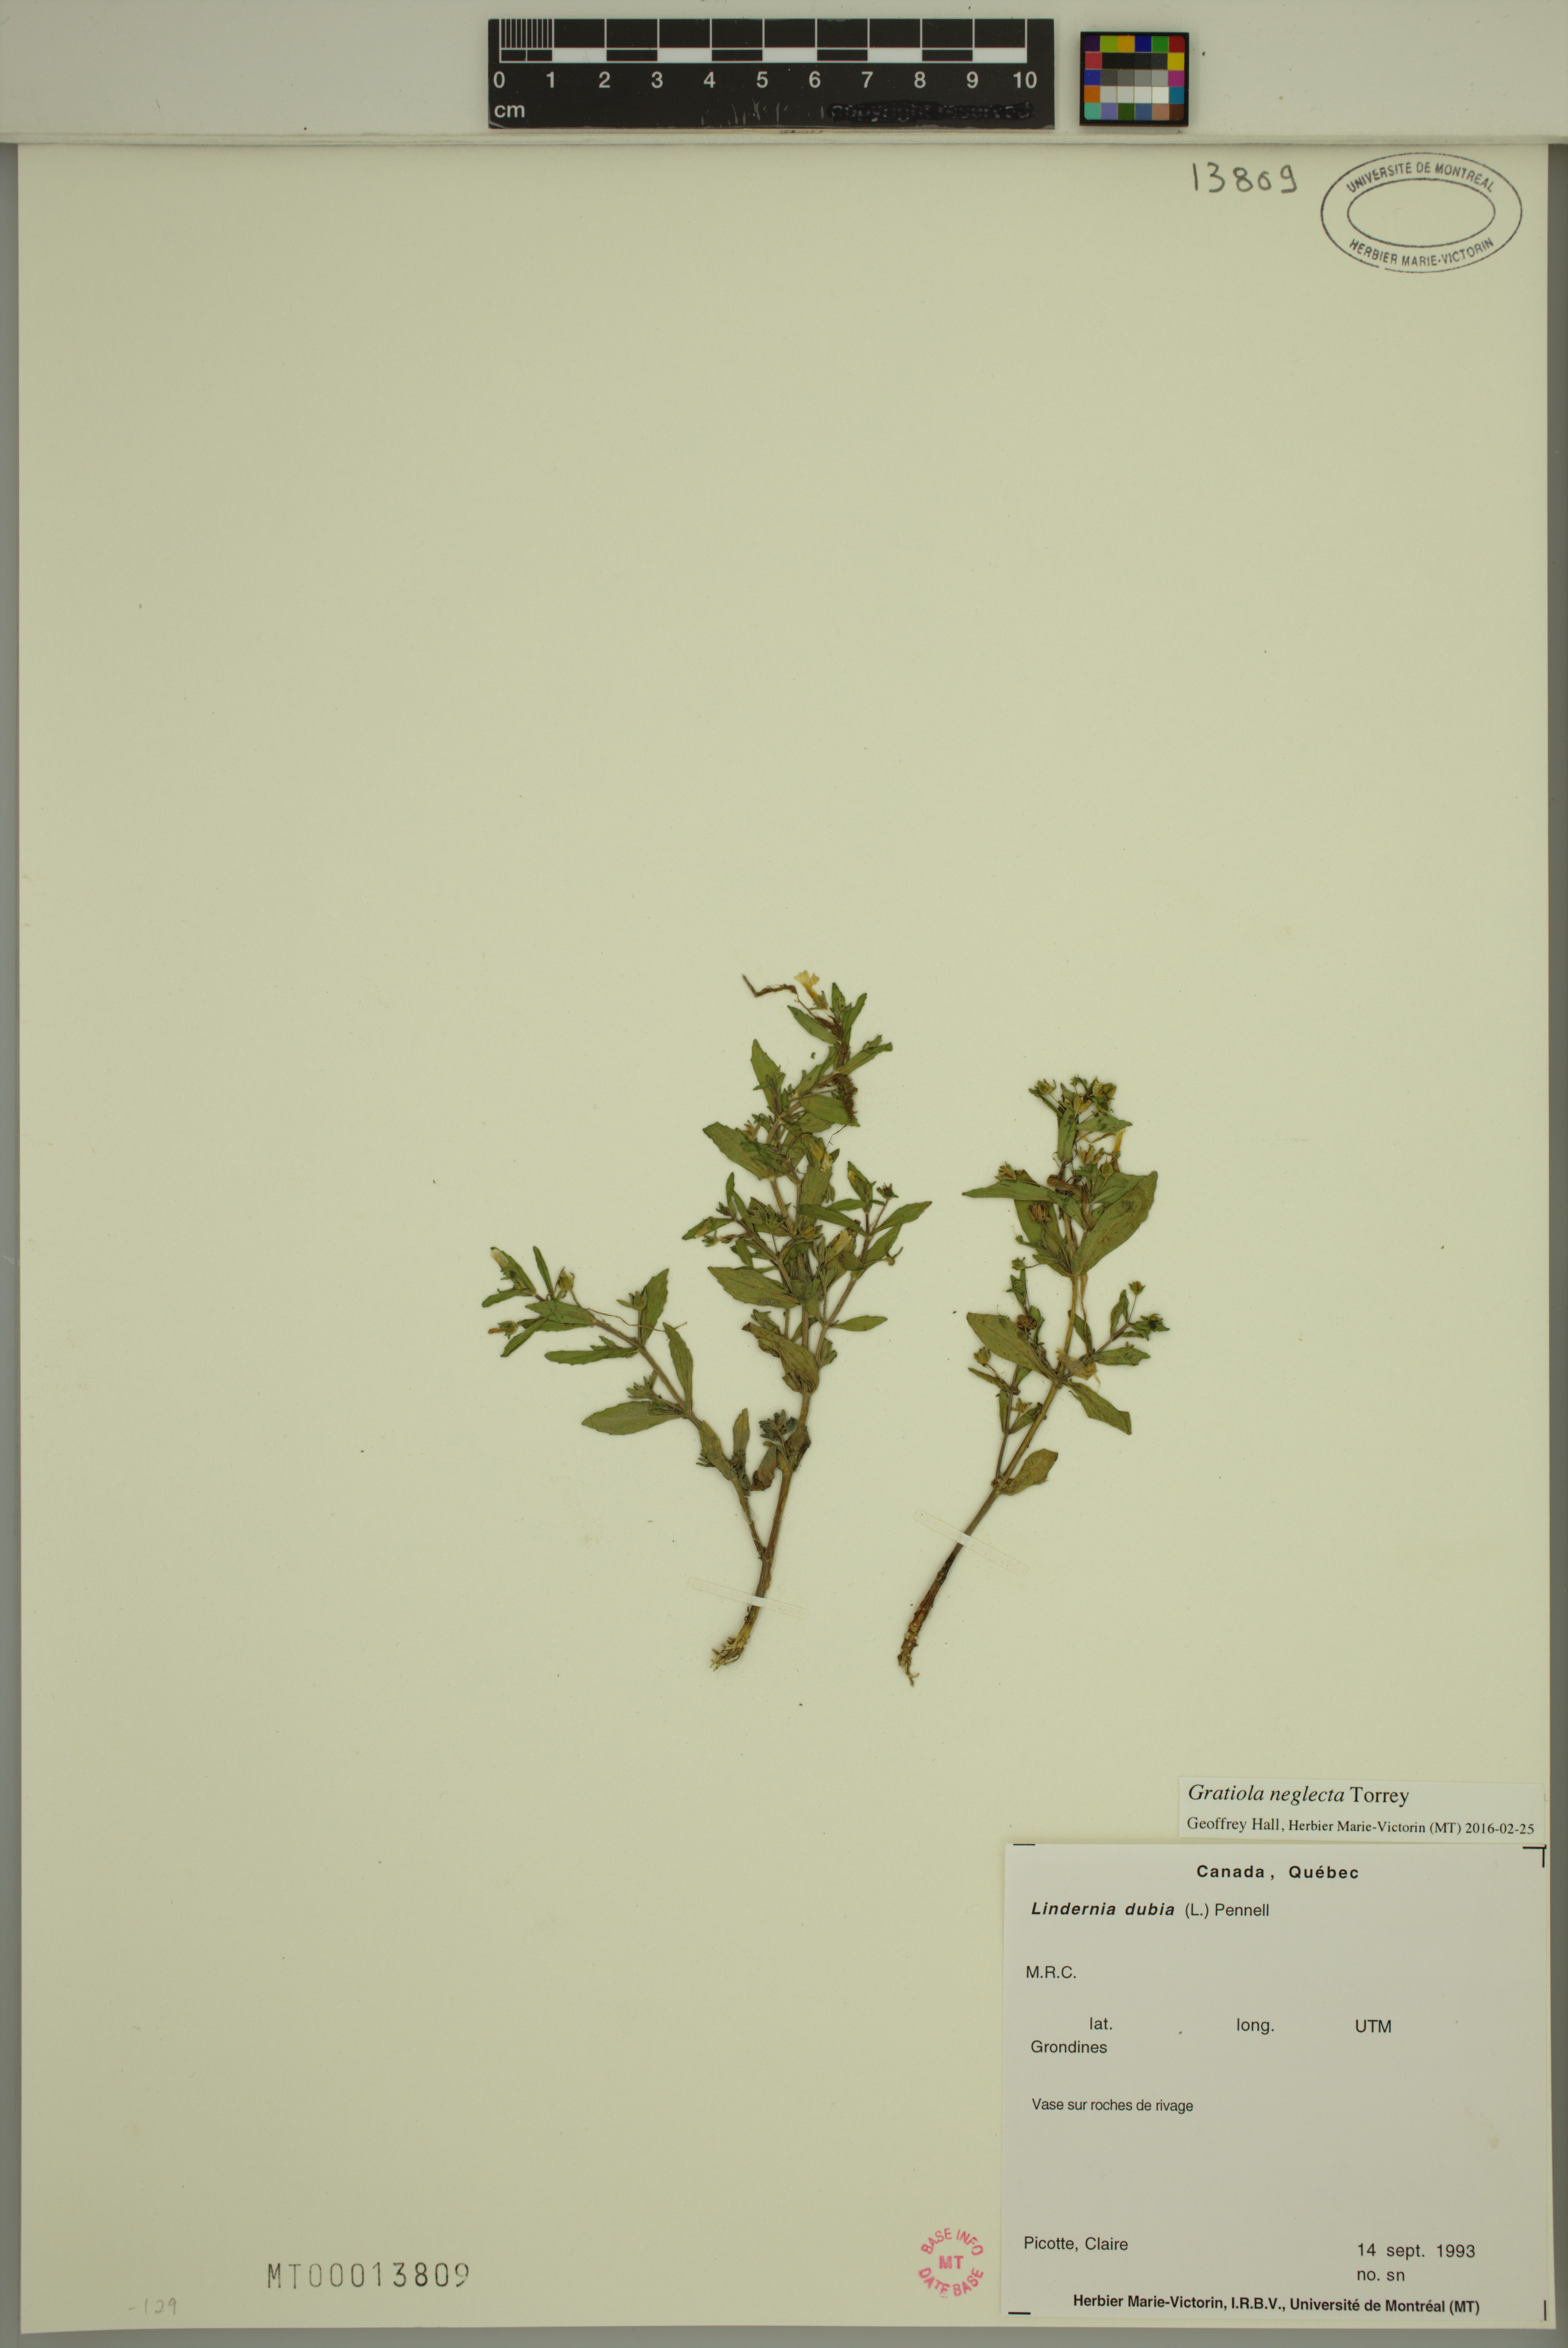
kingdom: Plantae
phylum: Tracheophyta
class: Magnoliopsida
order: Lamiales
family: Plantaginaceae
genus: Gratiola
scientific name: Gratiola neglecta
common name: American hedge-hyssop
